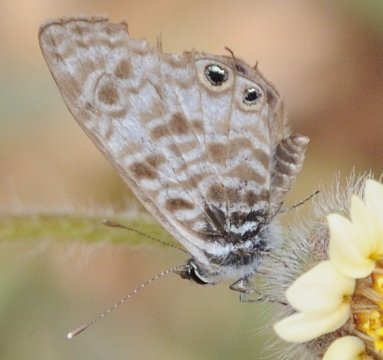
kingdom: Animalia
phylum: Arthropoda
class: Insecta
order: Lepidoptera
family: Lycaenidae
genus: Leptotes
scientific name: Leptotes pirithous
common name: Lang's Short-tailed Blue
